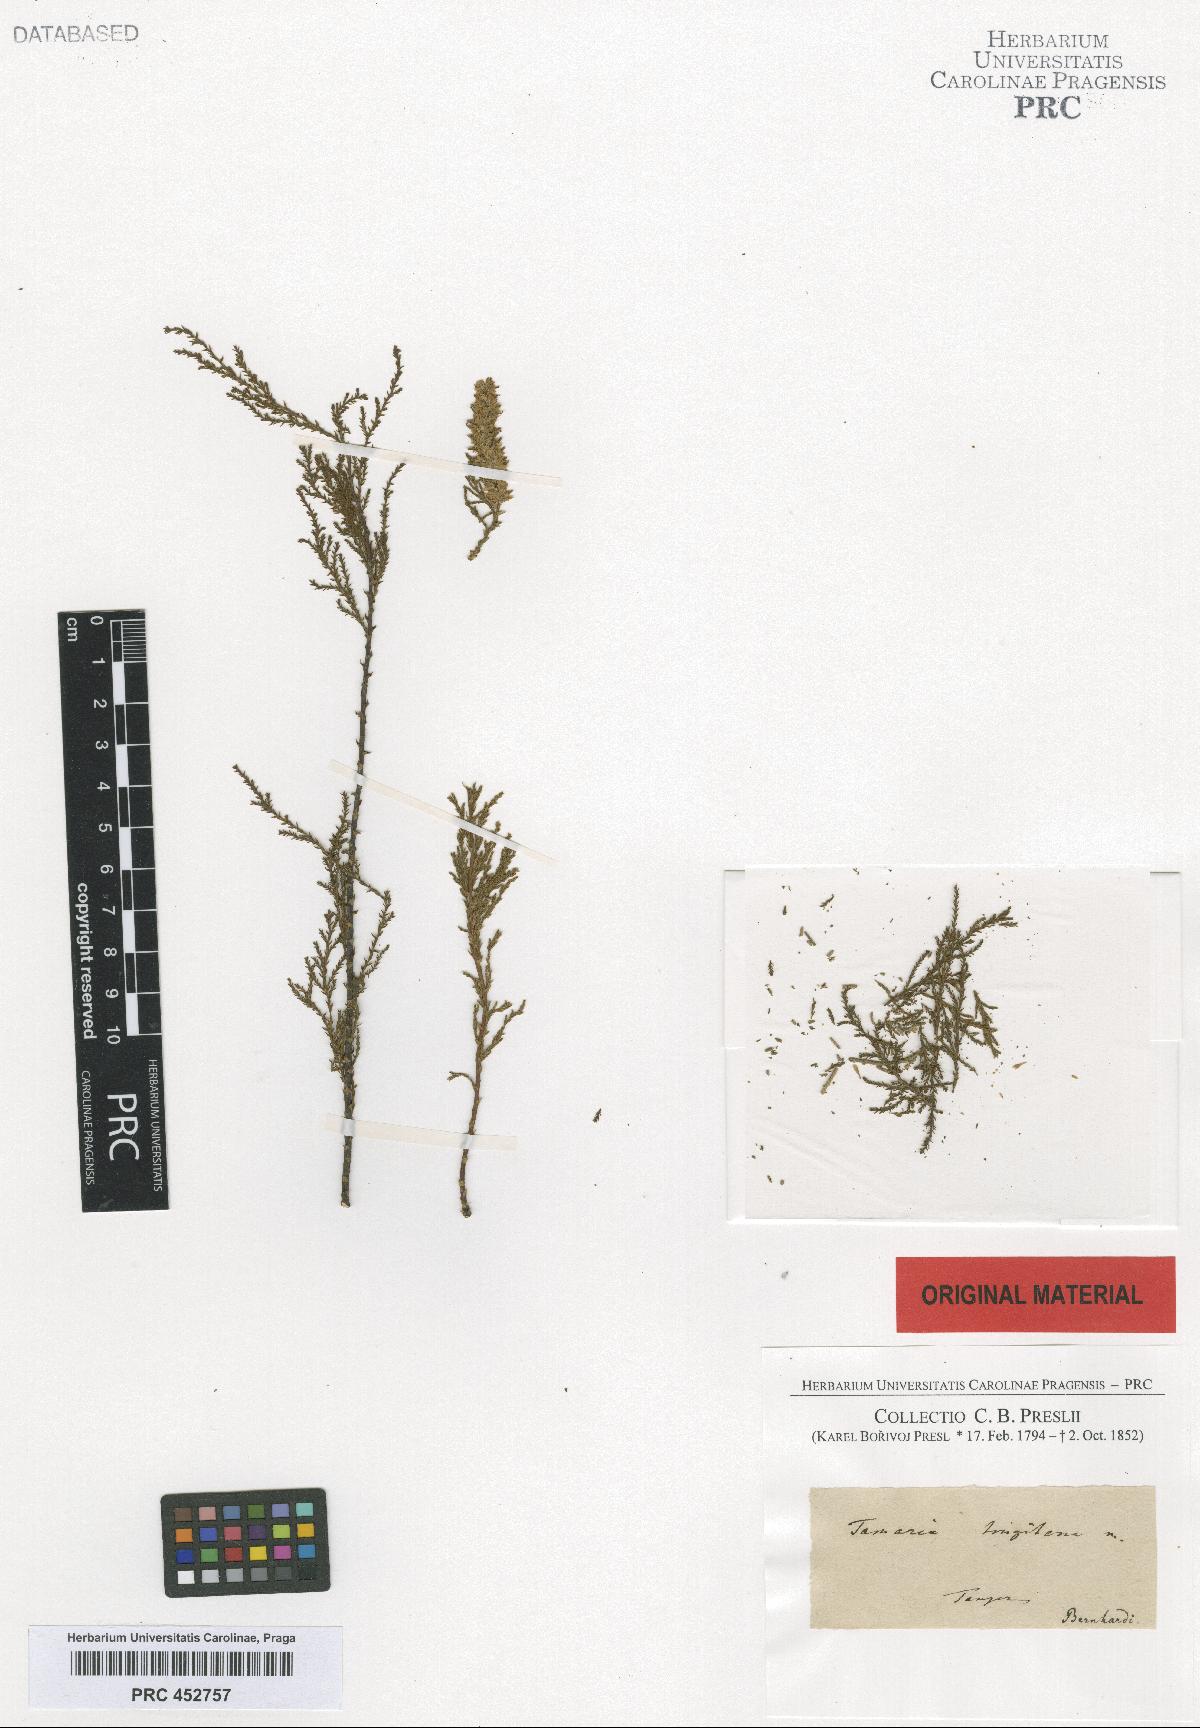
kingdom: Plantae
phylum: Tracheophyta
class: Magnoliopsida
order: Caryophyllales
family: Tamaricaceae
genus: Tamarix
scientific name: Tamarix africana
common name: African tamarisk
